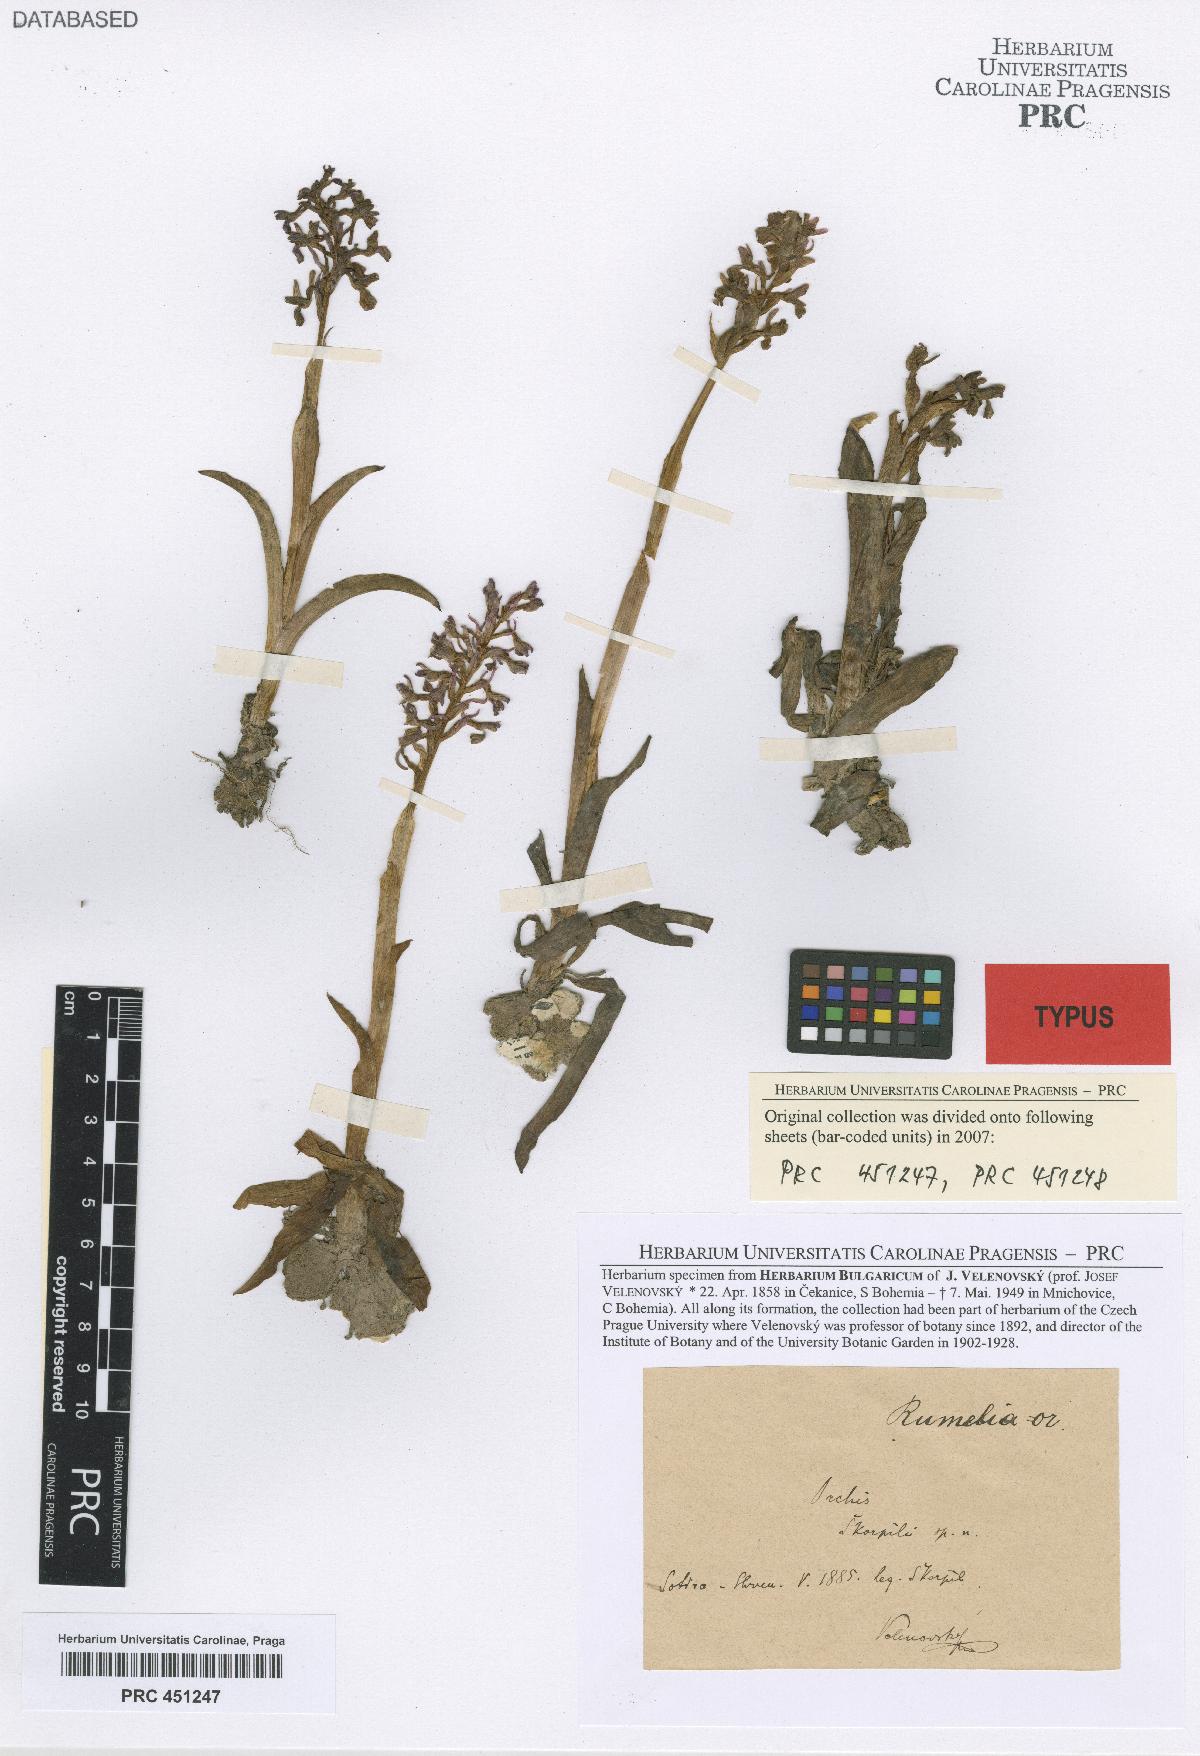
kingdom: Plantae
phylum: Tracheophyta
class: Liliopsida
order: Asparagales
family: Orchidaceae
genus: Anacamptis
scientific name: Anacamptis morio
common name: Green-winged orchid
